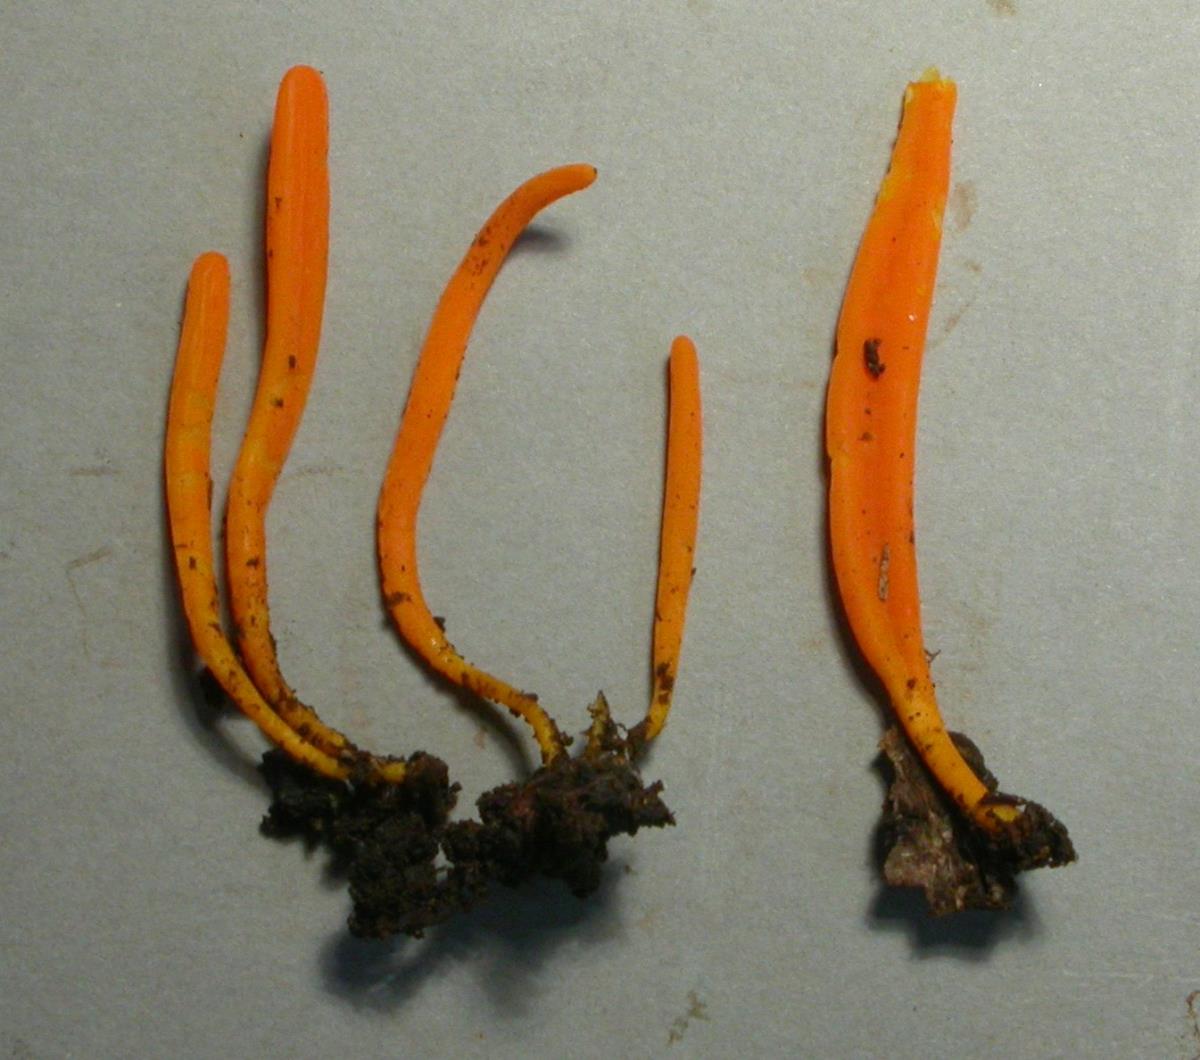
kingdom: Fungi
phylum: Basidiomycota
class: Agaricomycetes
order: Agaricales
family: Clavariaceae
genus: Clavulinopsis
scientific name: Clavulinopsis depokensis
